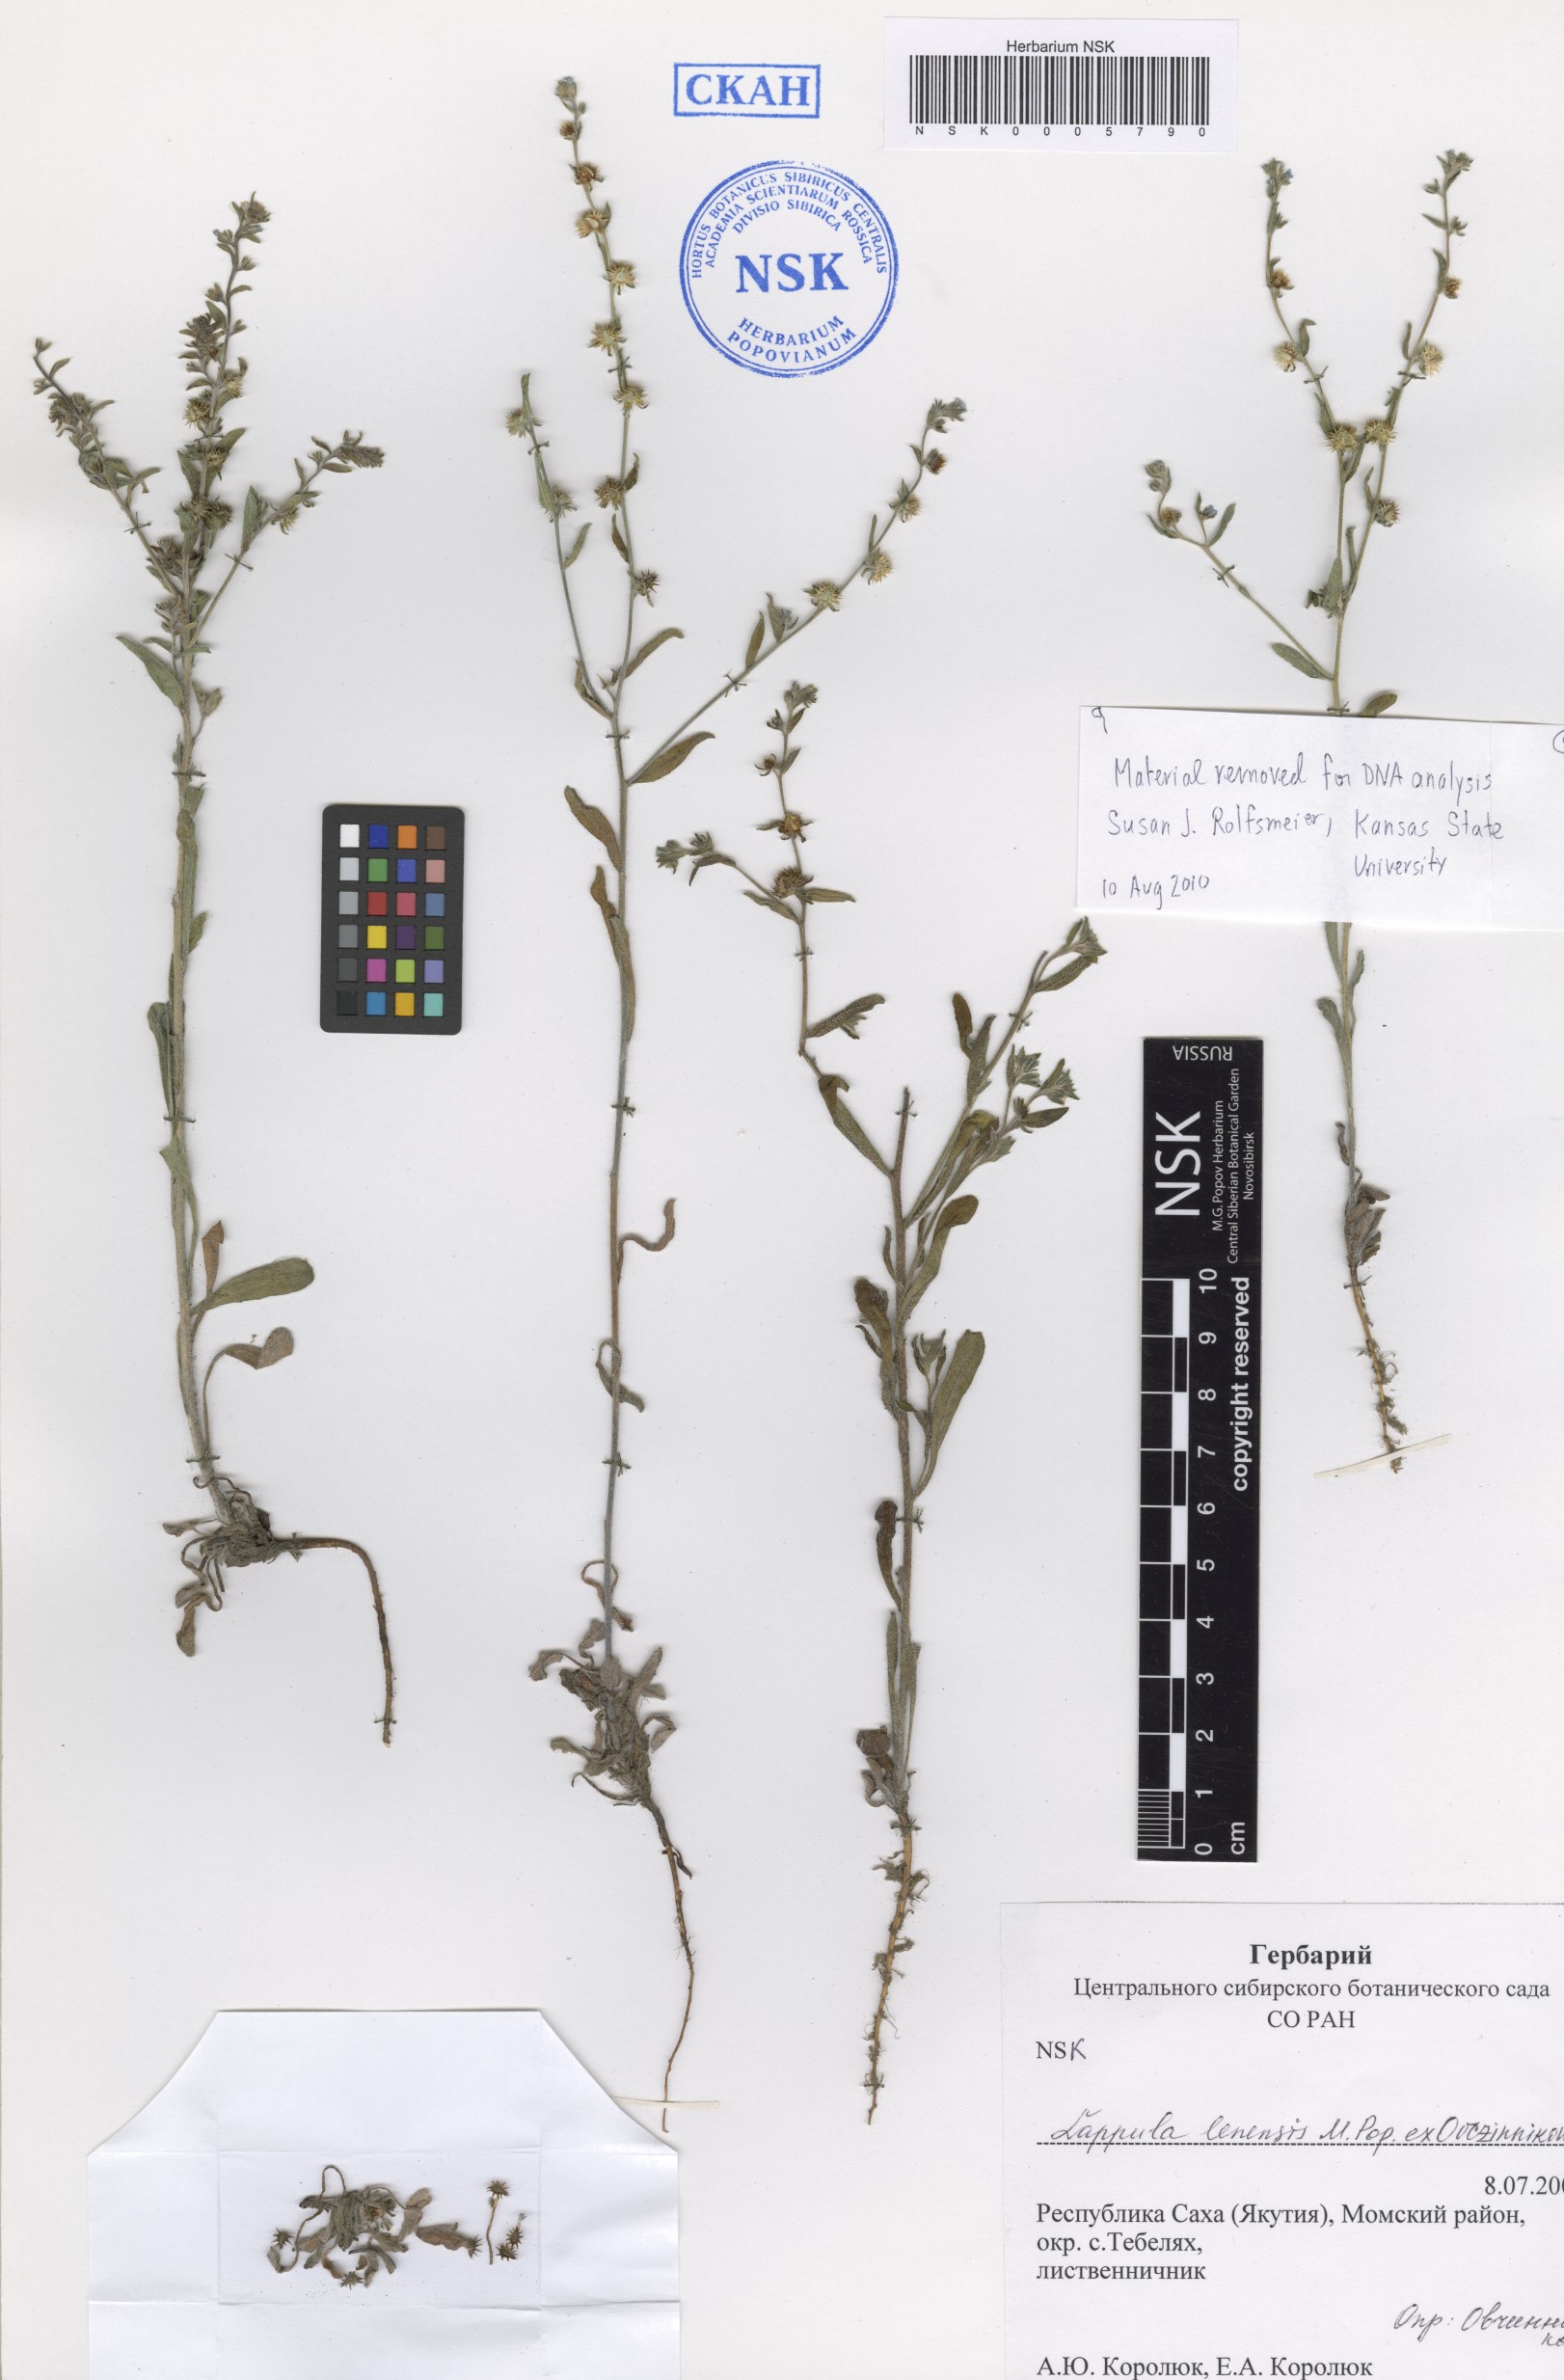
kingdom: Plantae
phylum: Tracheophyta
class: Magnoliopsida
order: Boraginales
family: Boraginaceae
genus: Lappula
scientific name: Lappula lenensis
